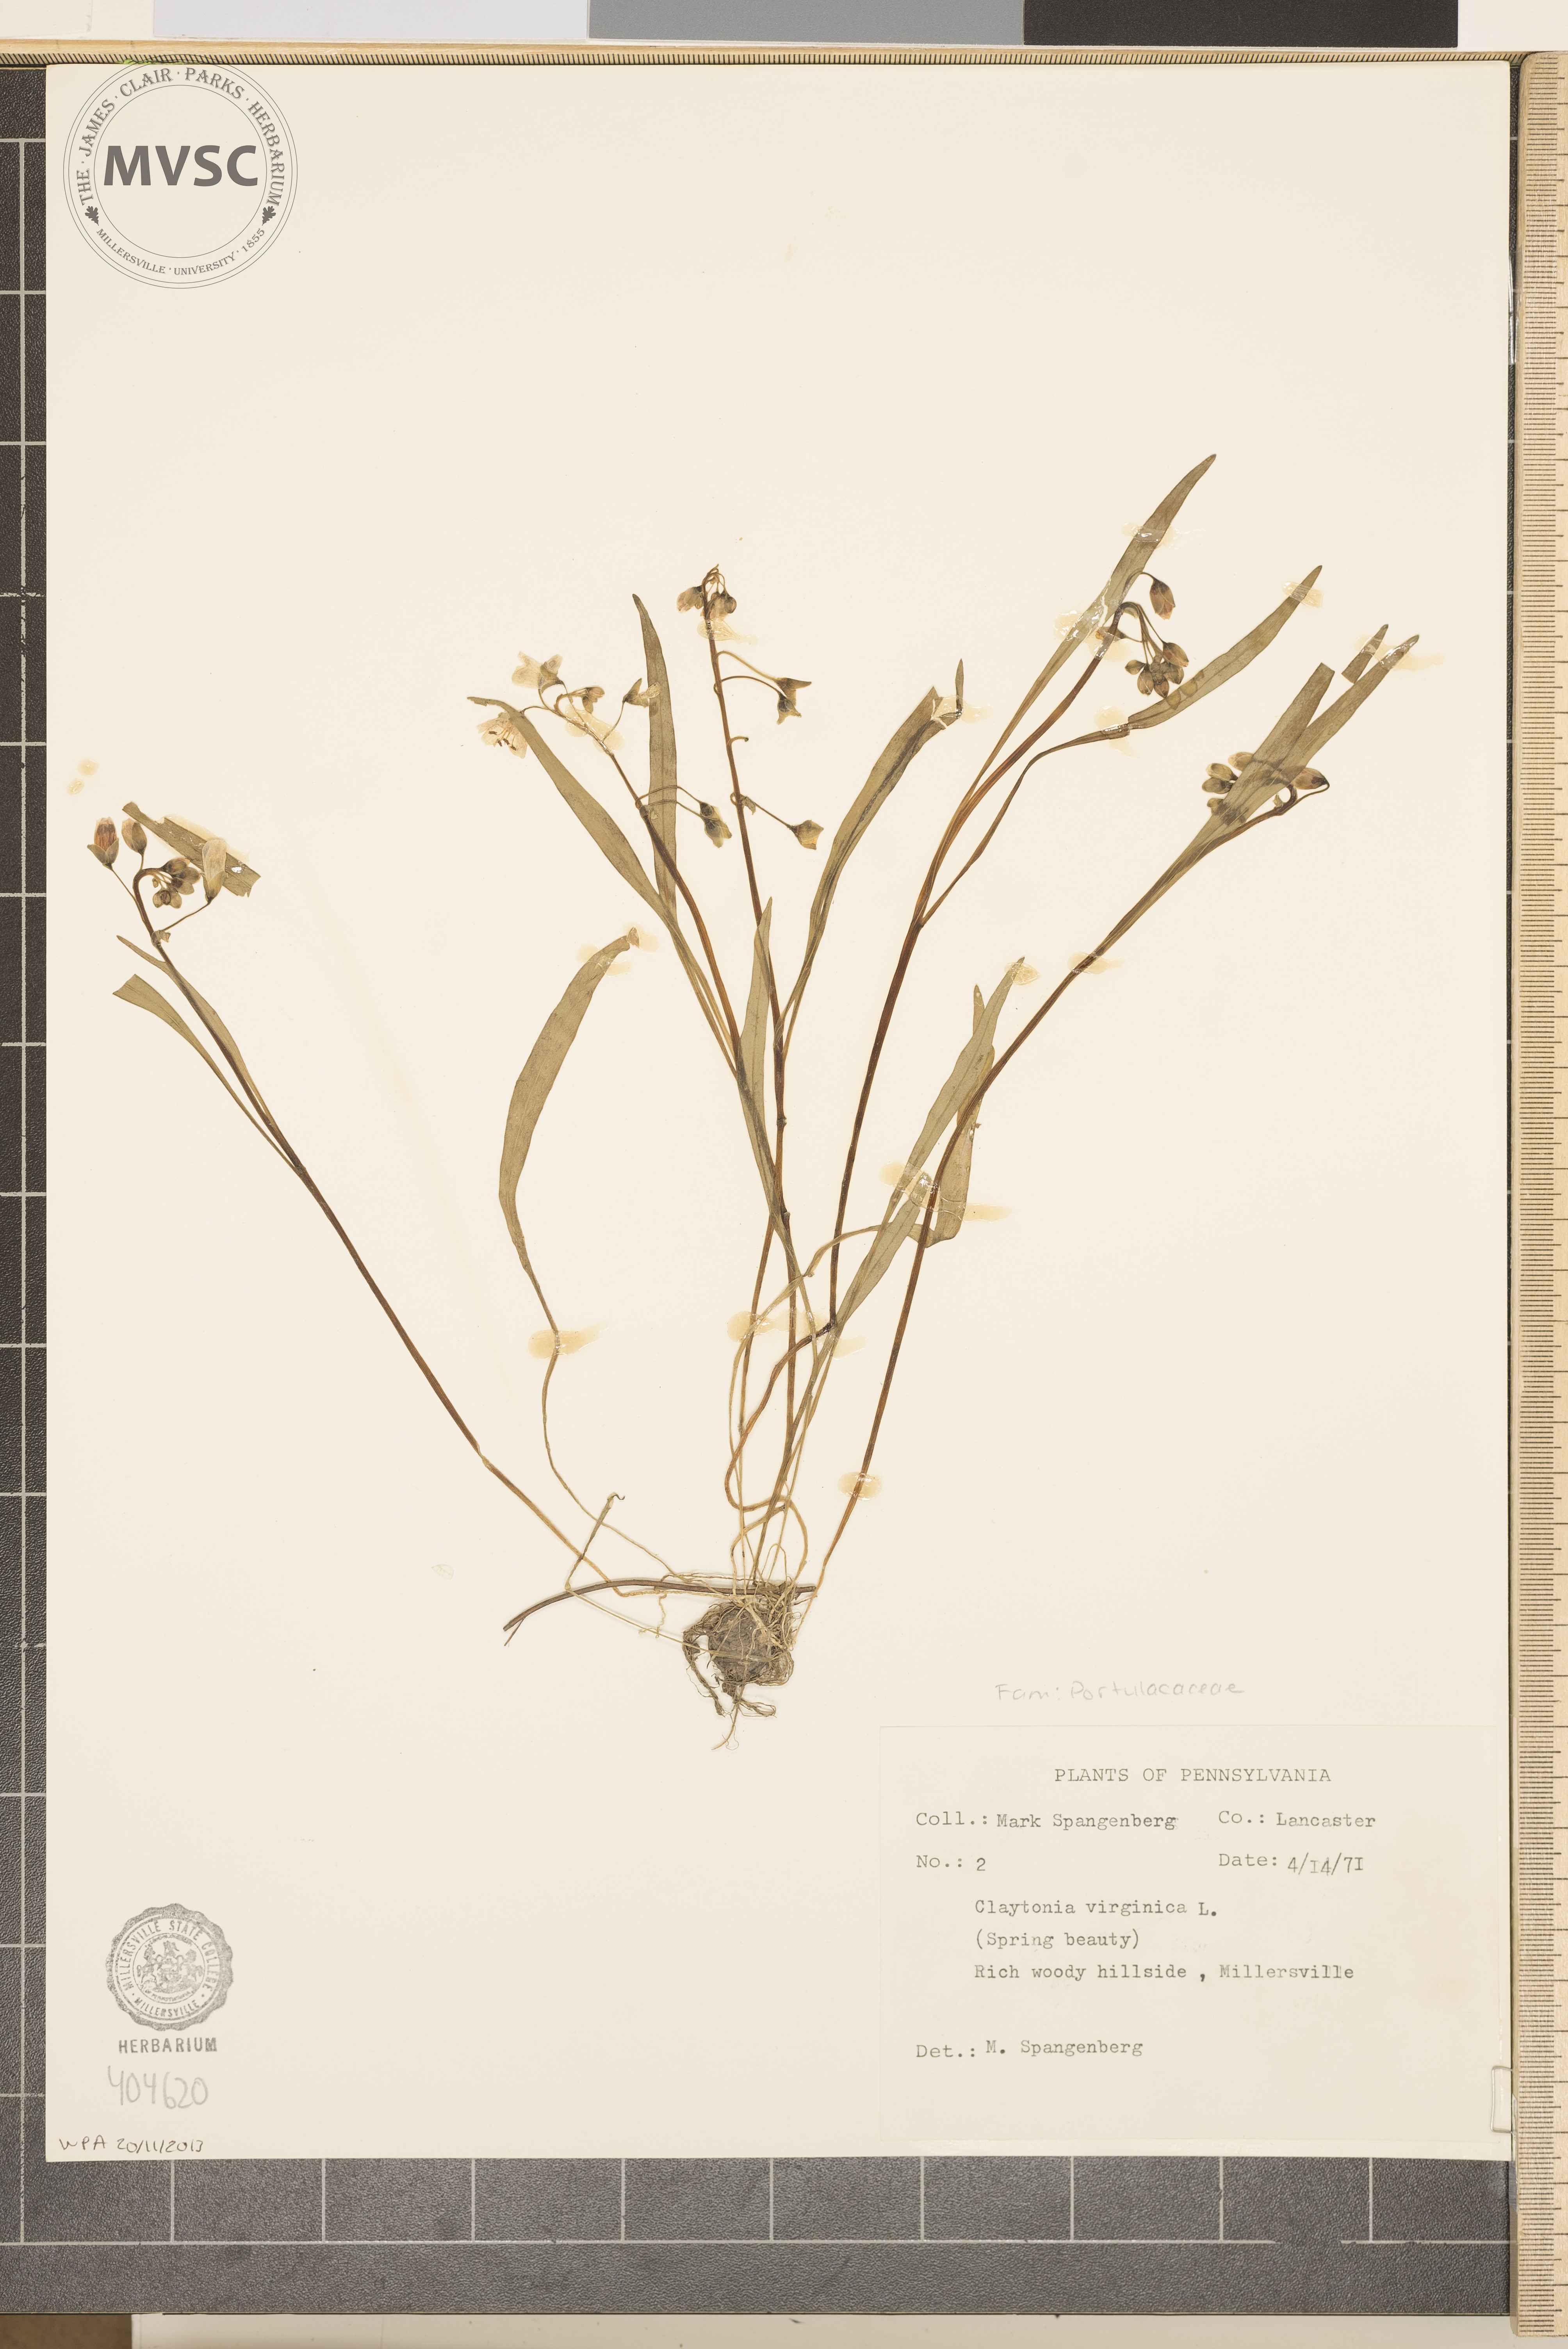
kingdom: Plantae
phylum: Tracheophyta
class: Magnoliopsida
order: Caryophyllales
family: Montiaceae
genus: Claytonia
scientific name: Claytonia virginica
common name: Virginia springbeauty
